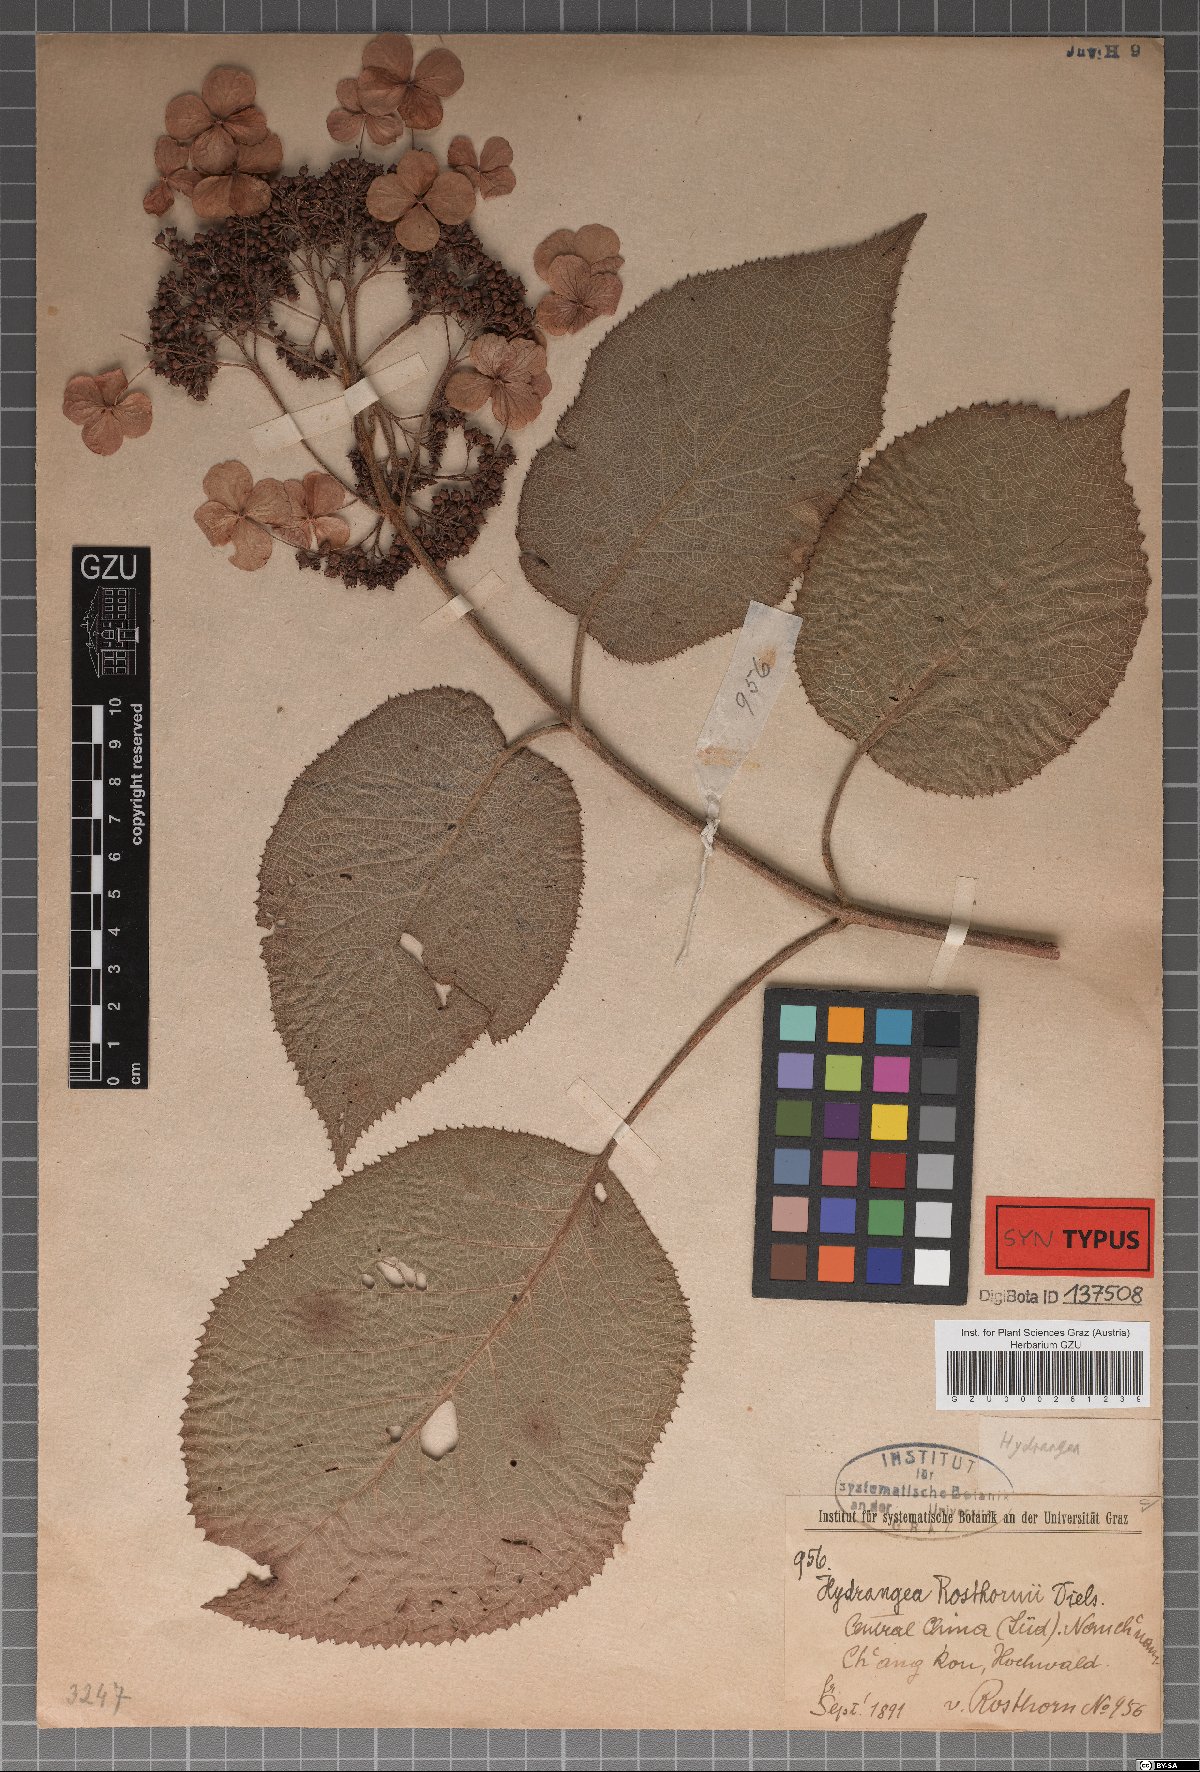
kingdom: Plantae
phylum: Tracheophyta
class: Magnoliopsida
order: Cornales
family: Hydrangeaceae
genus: Hydrangea
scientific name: Hydrangea robusta
